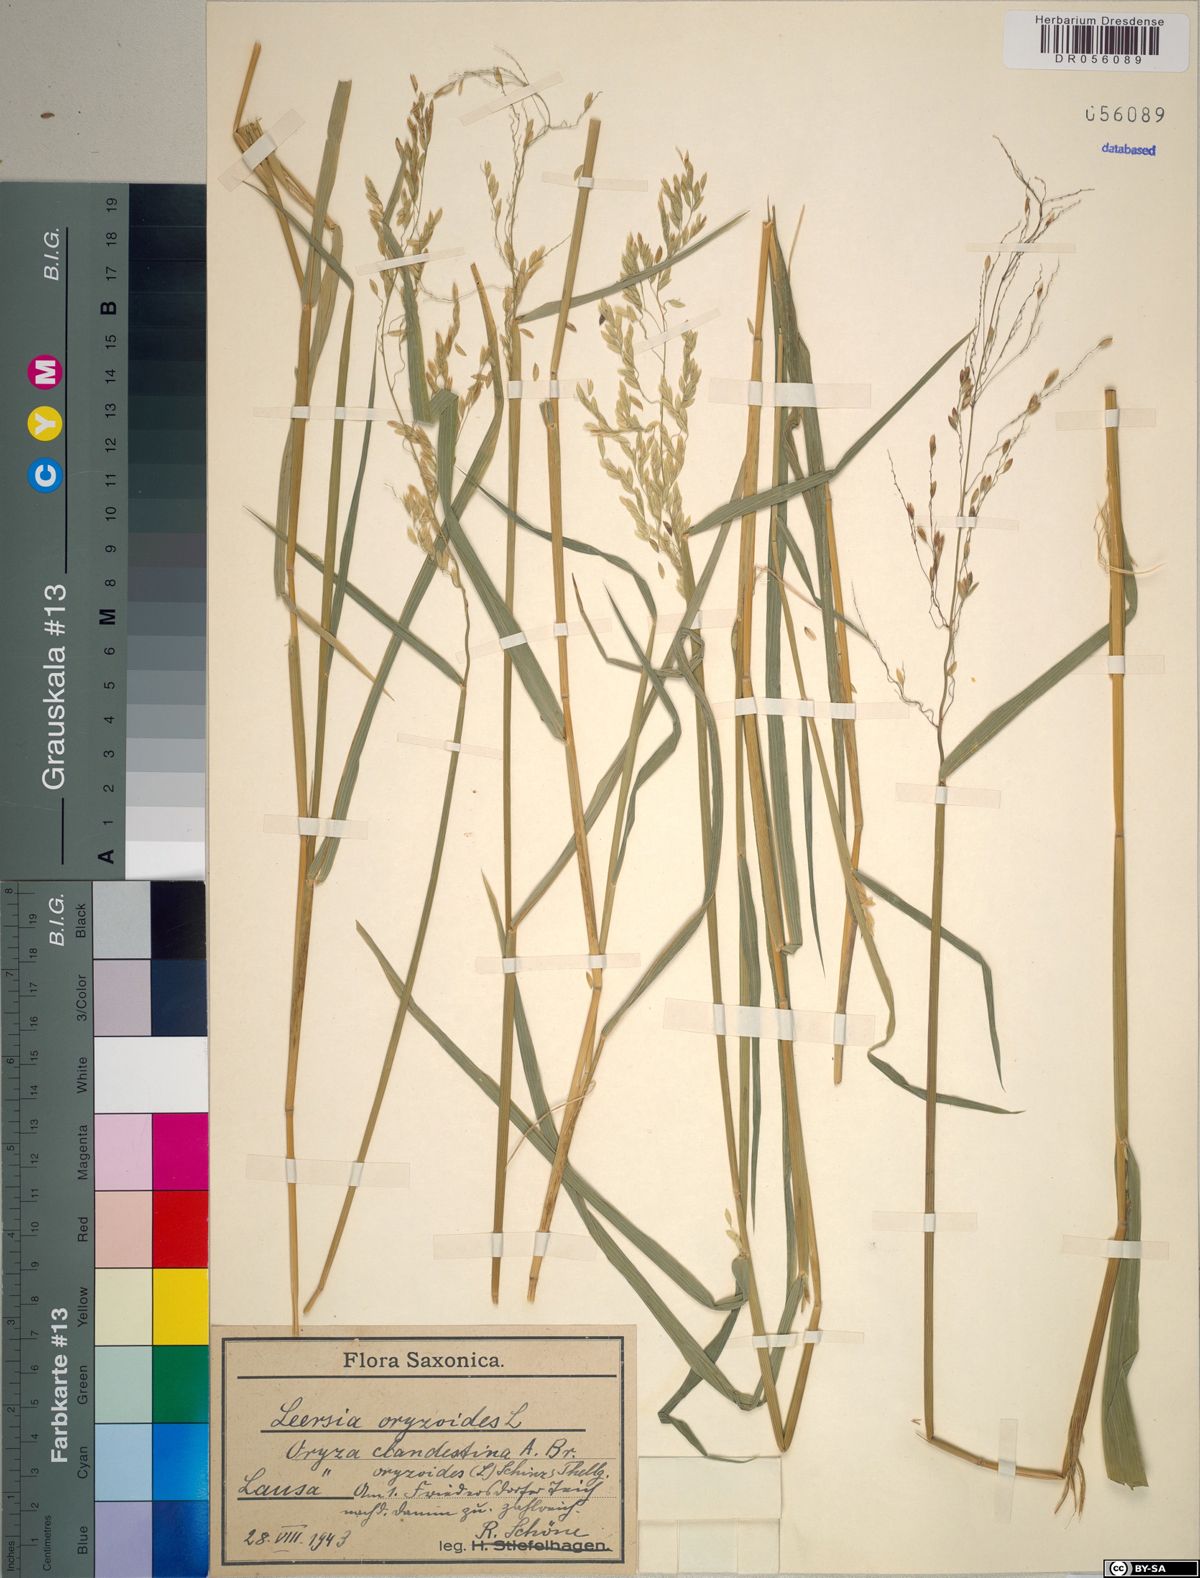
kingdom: Plantae
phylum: Tracheophyta
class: Liliopsida
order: Poales
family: Poaceae
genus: Leersia
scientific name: Leersia oryzoides
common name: Cut-grass
